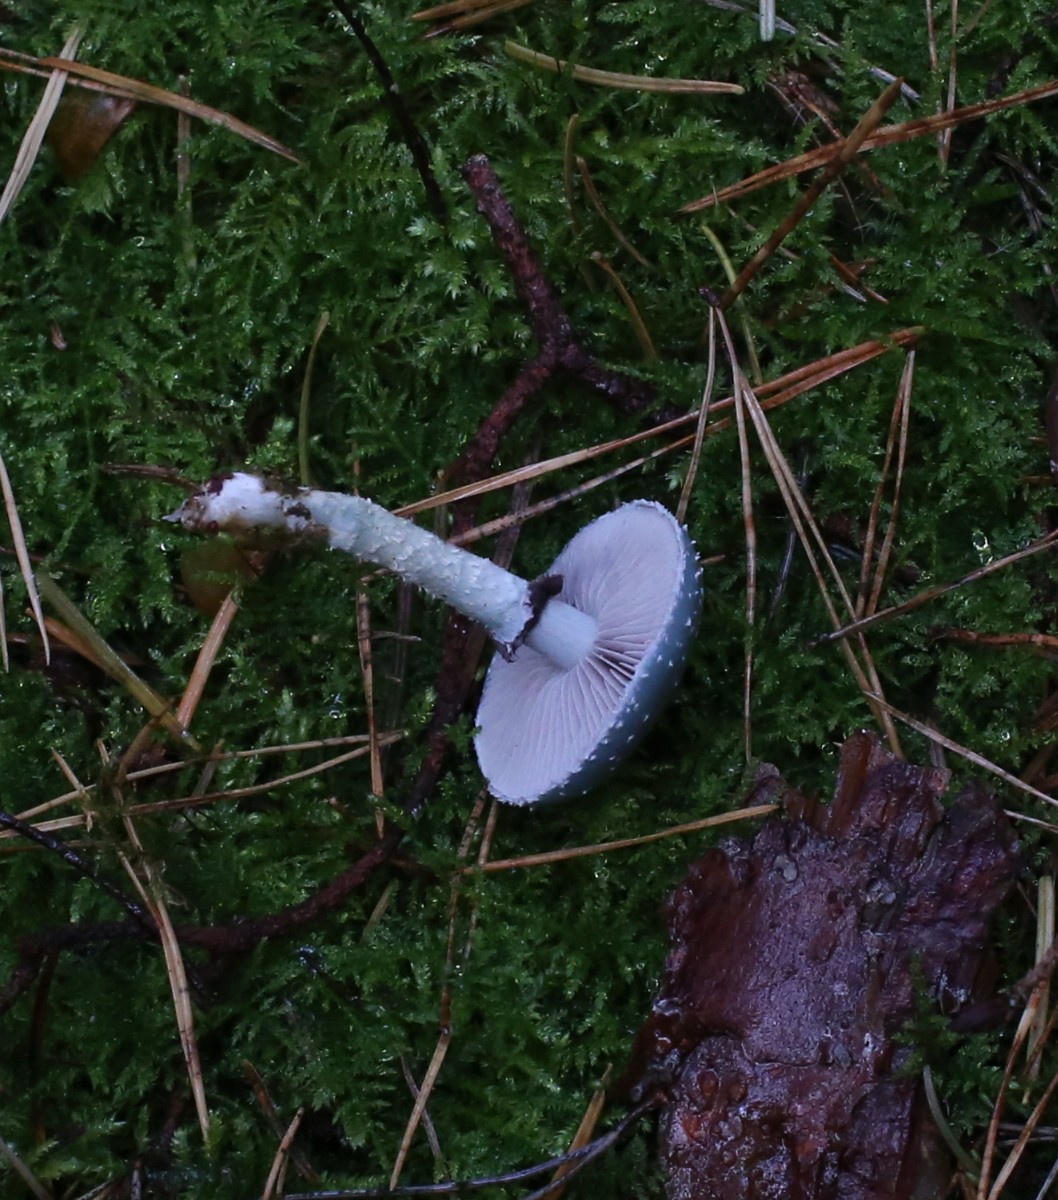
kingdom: Fungi
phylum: Basidiomycota
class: Agaricomycetes
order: Agaricales
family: Strophariaceae
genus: Stropharia
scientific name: Stropharia aeruginosa
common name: spanskgrøn bredblad
